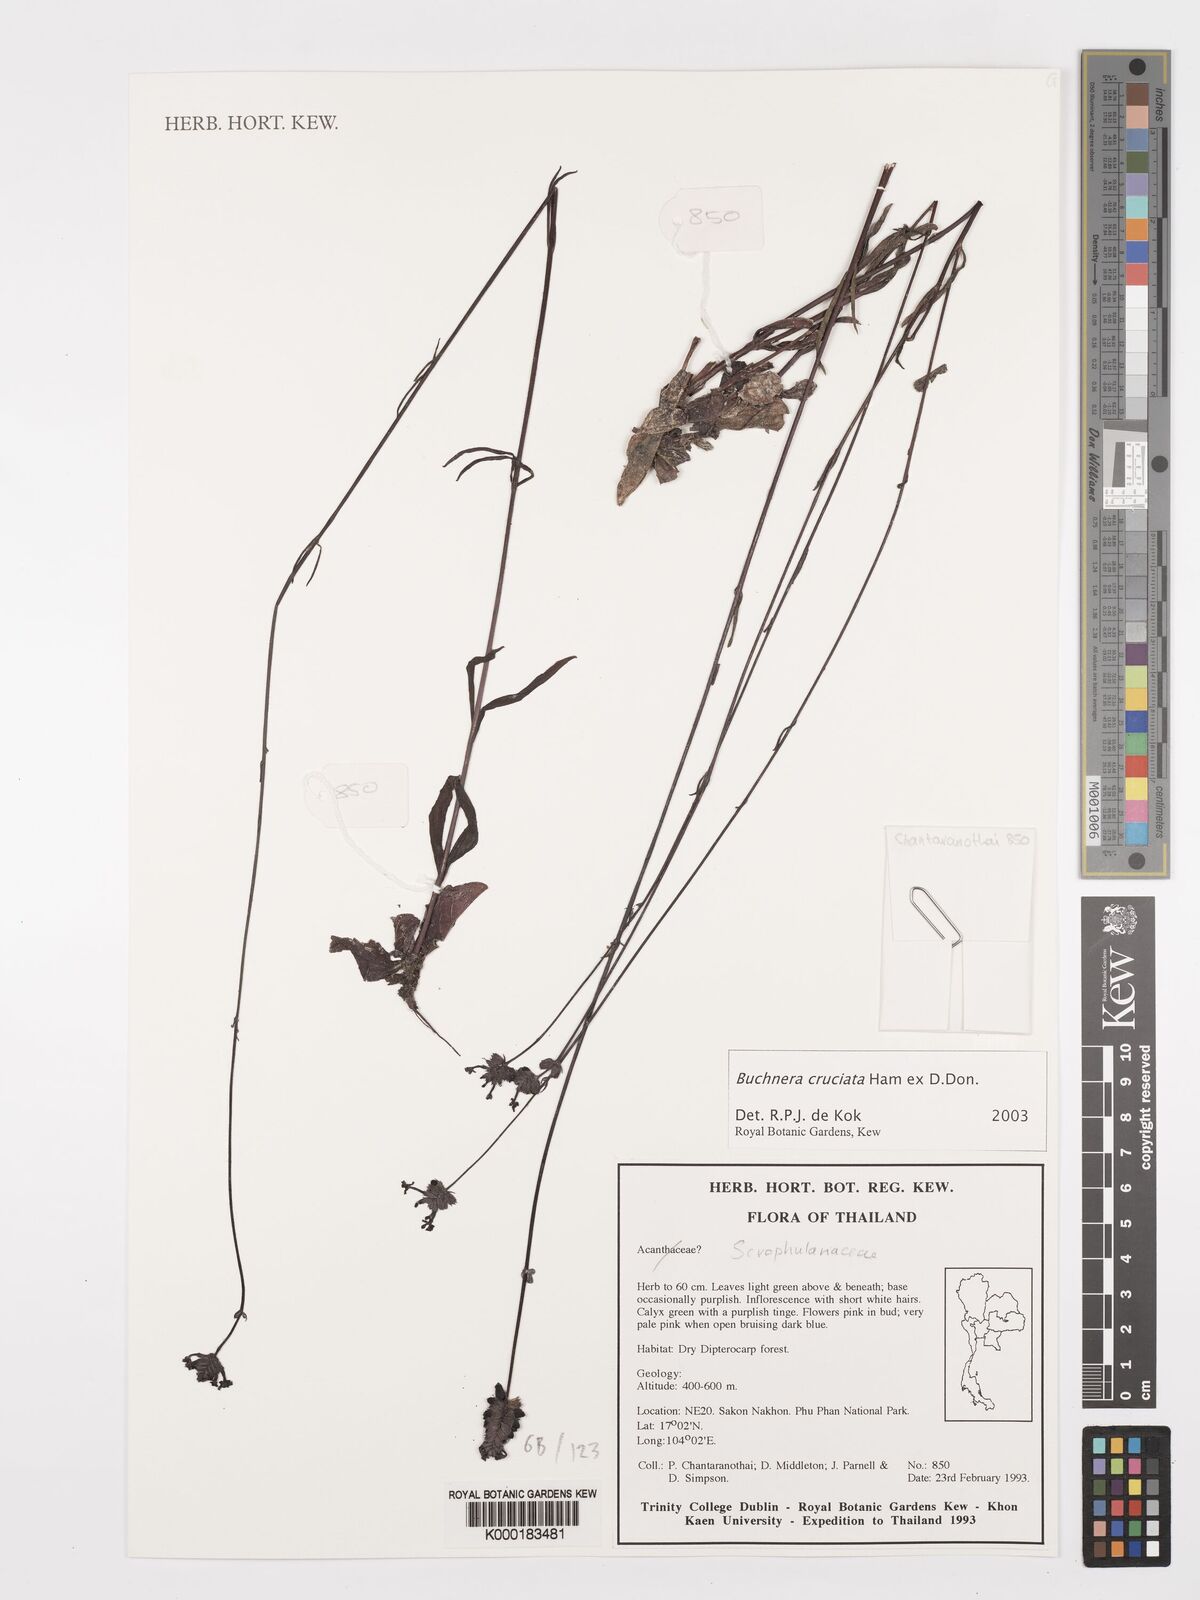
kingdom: Plantae
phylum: Tracheophyta
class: Magnoliopsida
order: Lamiales
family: Orobanchaceae
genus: Buchnera
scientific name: Buchnera cruciata
